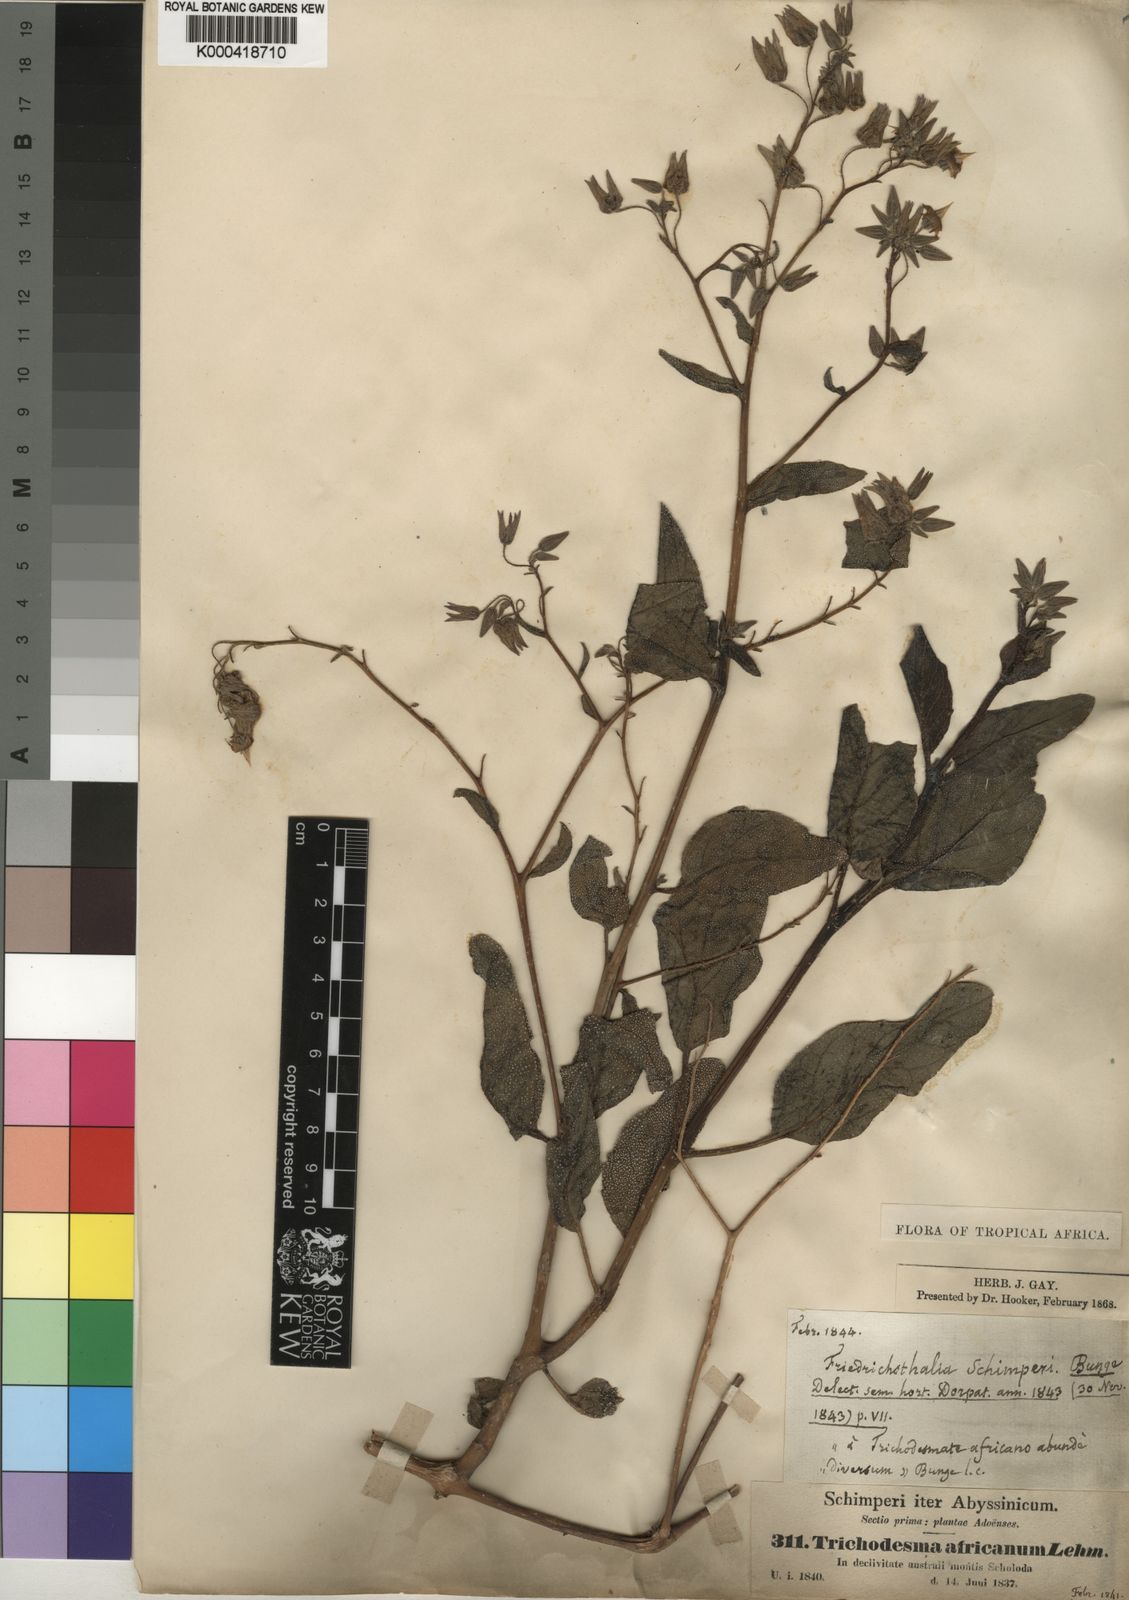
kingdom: Plantae
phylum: Tracheophyta
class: Magnoliopsida
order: Boraginales
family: Boraginaceae
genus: Trichodesma
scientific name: Trichodesma
